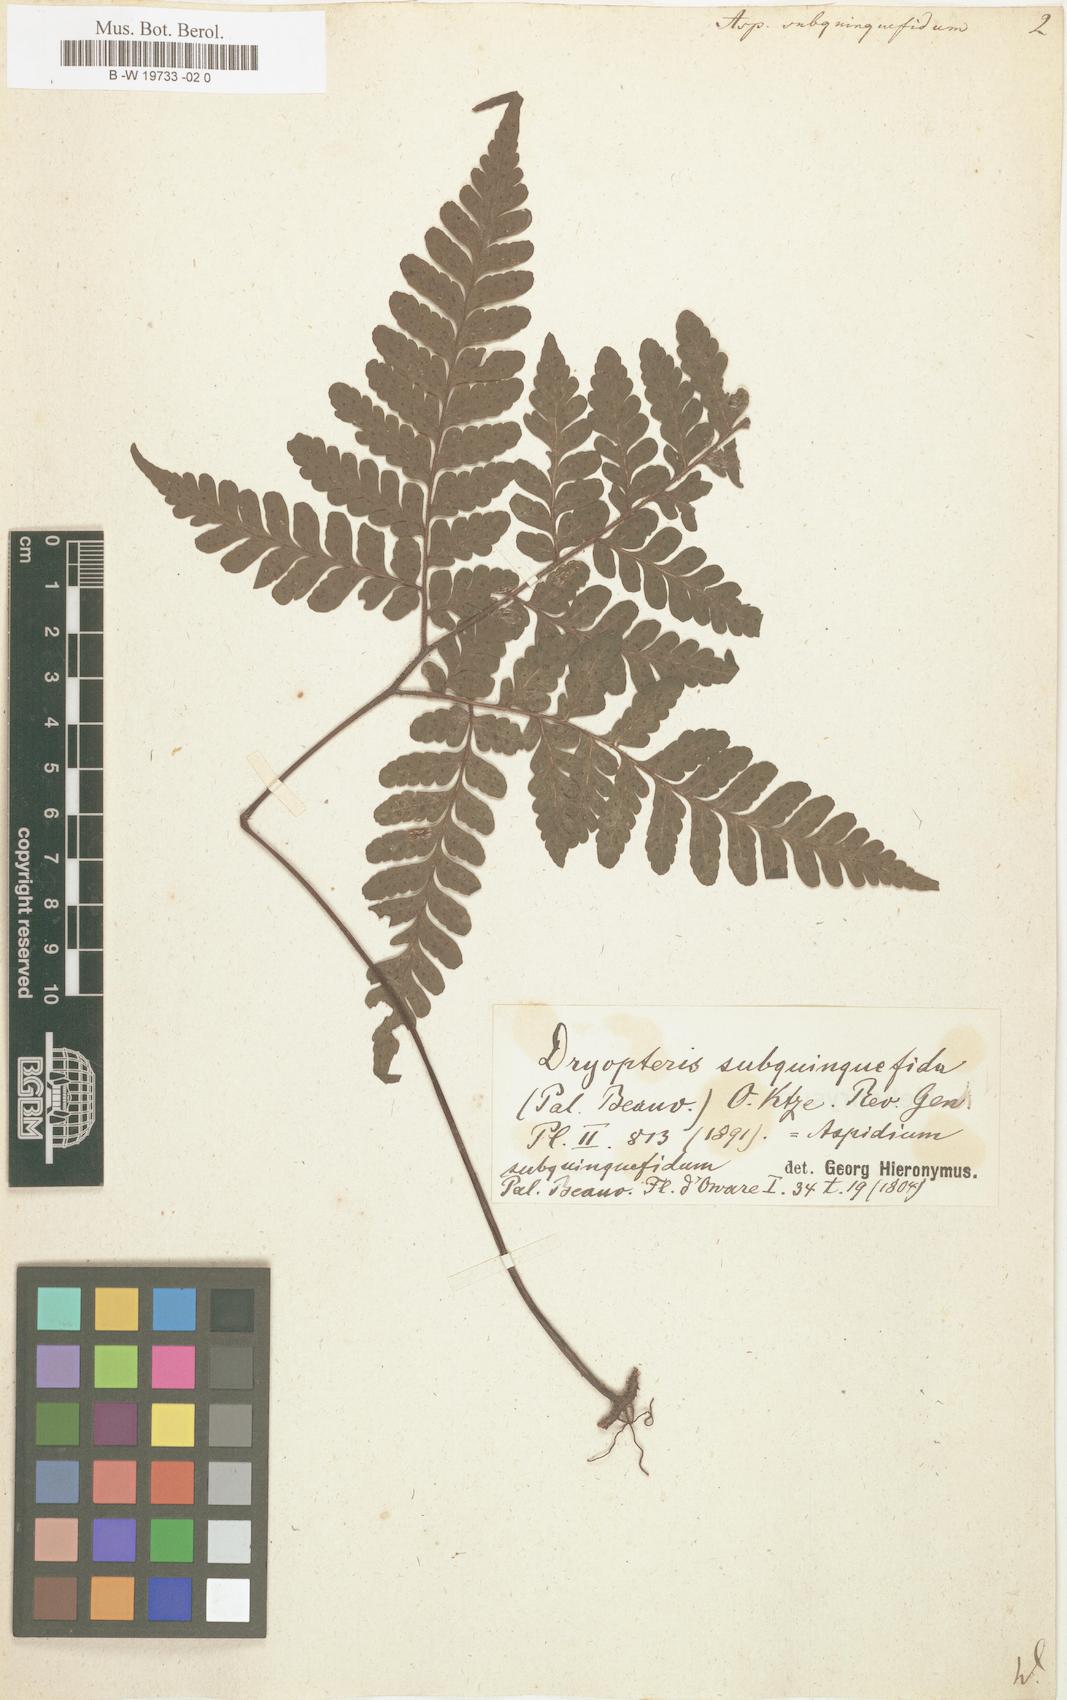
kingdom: Plantae
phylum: Tracheophyta
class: Polypodiopsida
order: Polypodiales
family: Tectariaceae
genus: Triplophyllum
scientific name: Triplophyllum subquinquefidum
